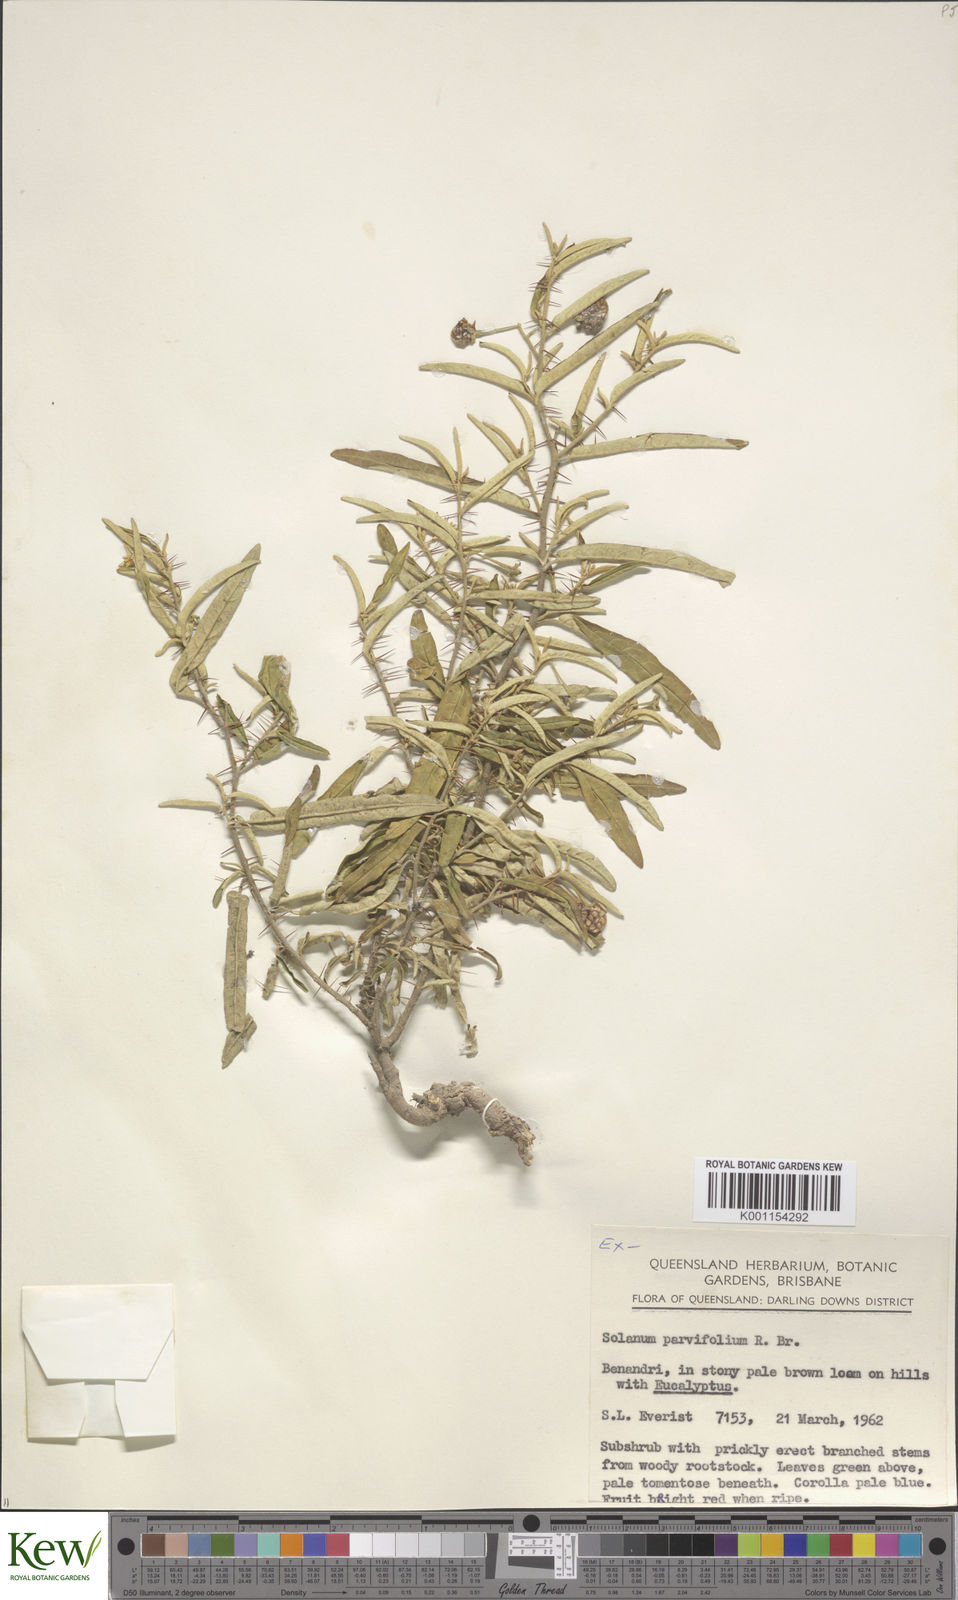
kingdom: Plantae
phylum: Tracheophyta
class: Magnoliopsida
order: Solanales
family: Solanaceae
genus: Solanum
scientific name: Solanum parvifolium
